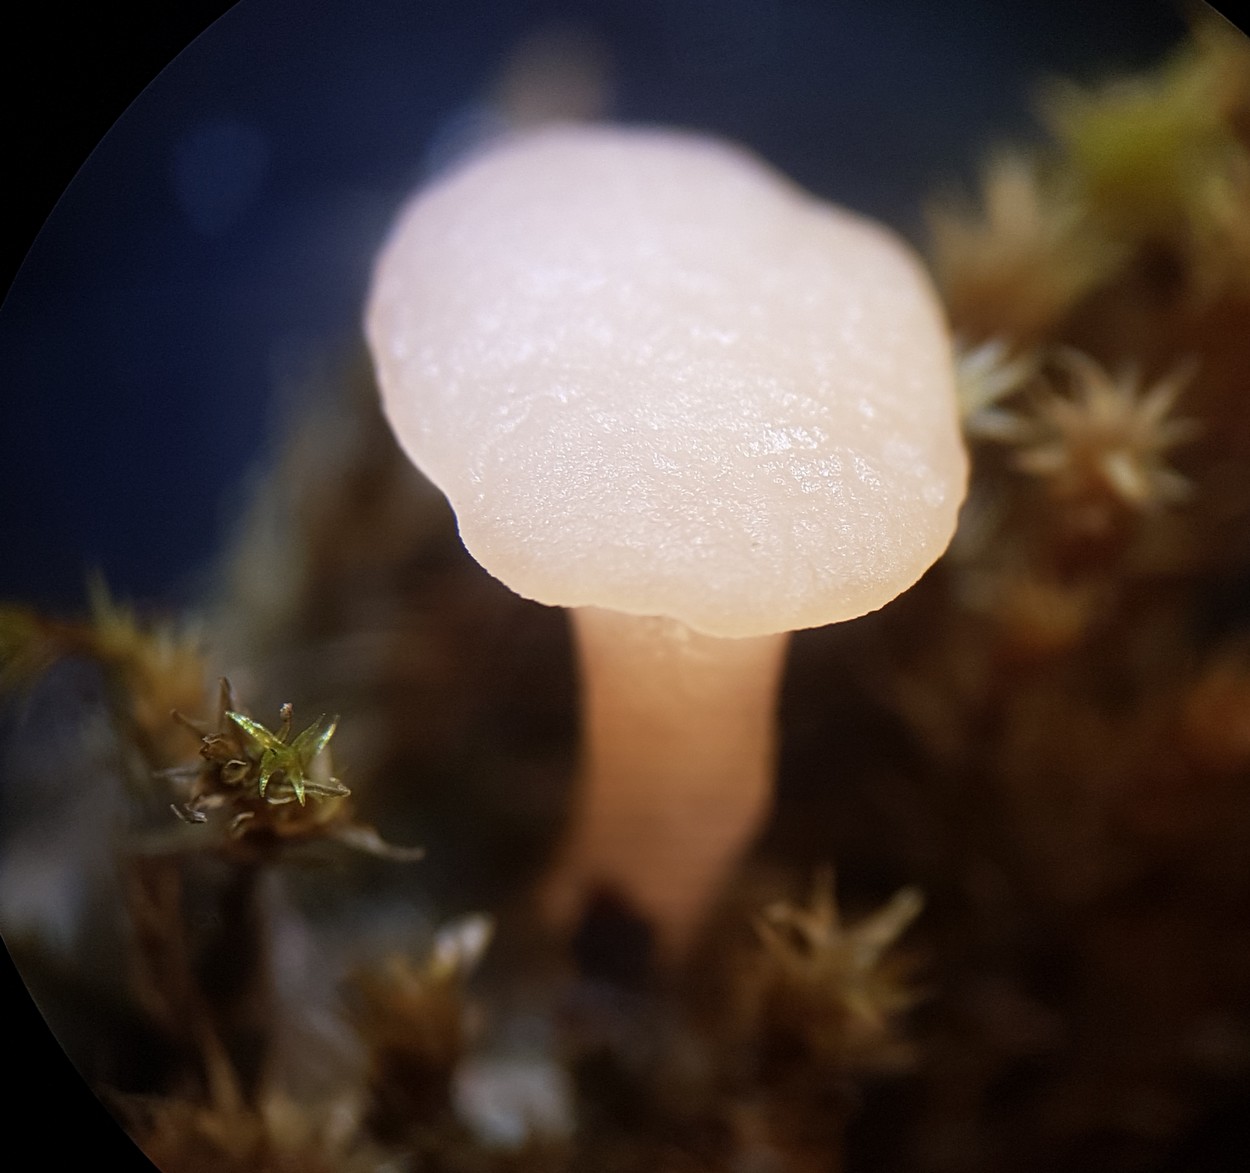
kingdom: Fungi
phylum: Ascomycota
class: Leotiomycetes
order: Helotiales
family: Hyaloscyphaceae
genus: Roseodiscus
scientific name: Roseodiscus formosus
